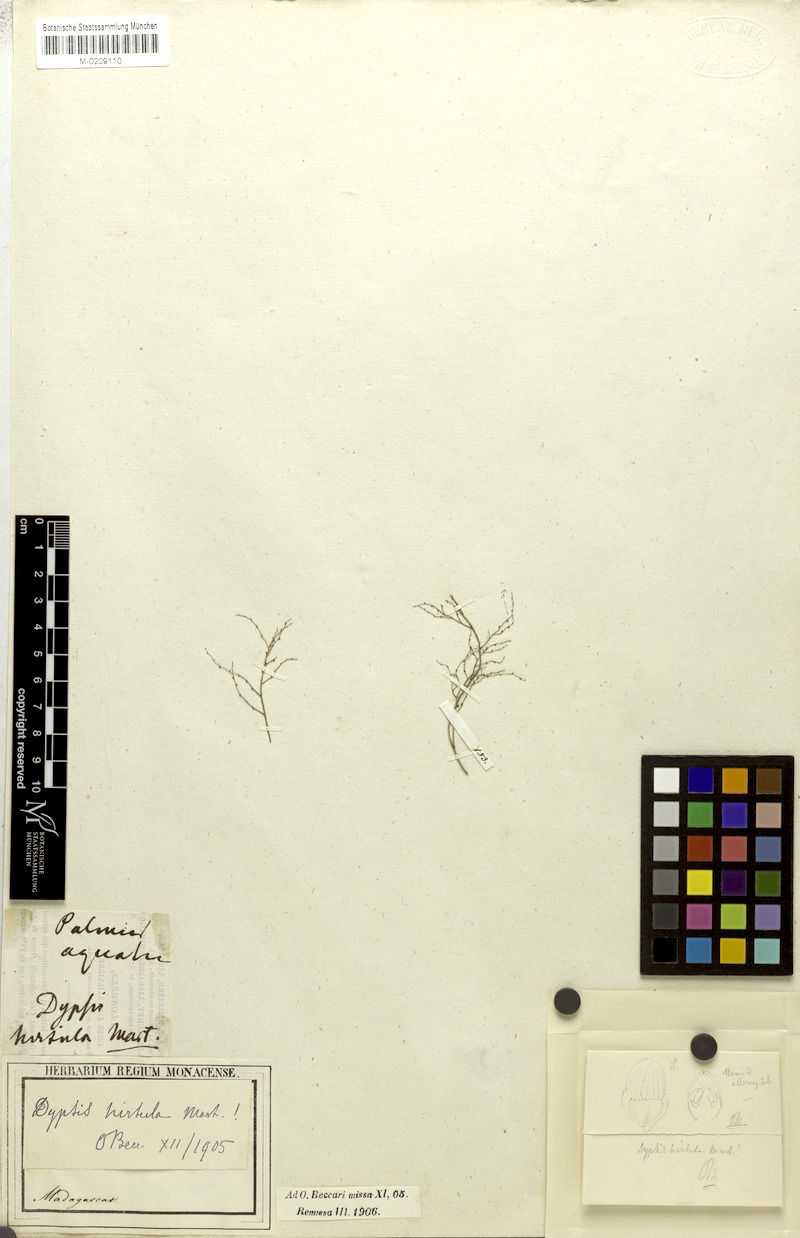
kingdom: Plantae
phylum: Tracheophyta
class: Liliopsida
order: Arecales
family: Arecaceae
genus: Dypsis
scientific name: Dypsis forficifolia
